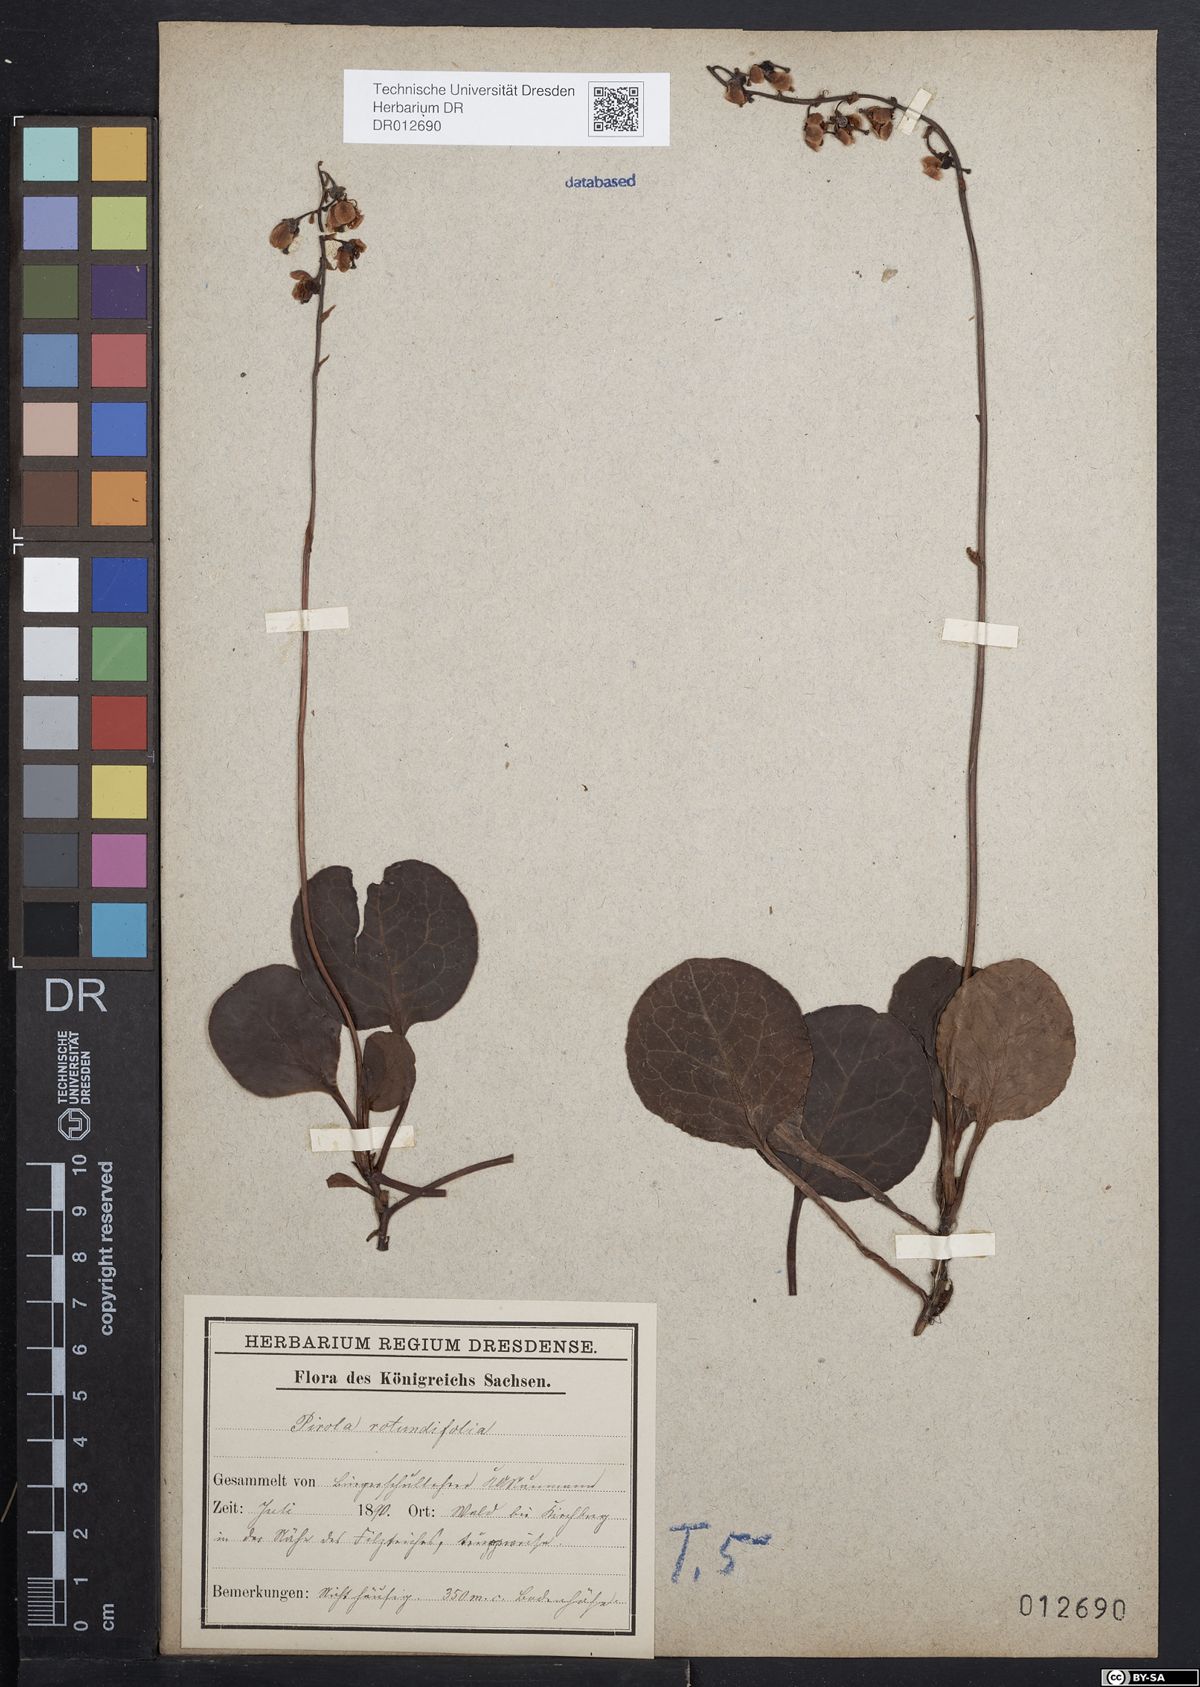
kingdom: Plantae
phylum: Tracheophyta
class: Magnoliopsida
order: Ericales
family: Ericaceae
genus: Pyrola
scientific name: Pyrola rotundifolia
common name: Round-leaved wintergreen
